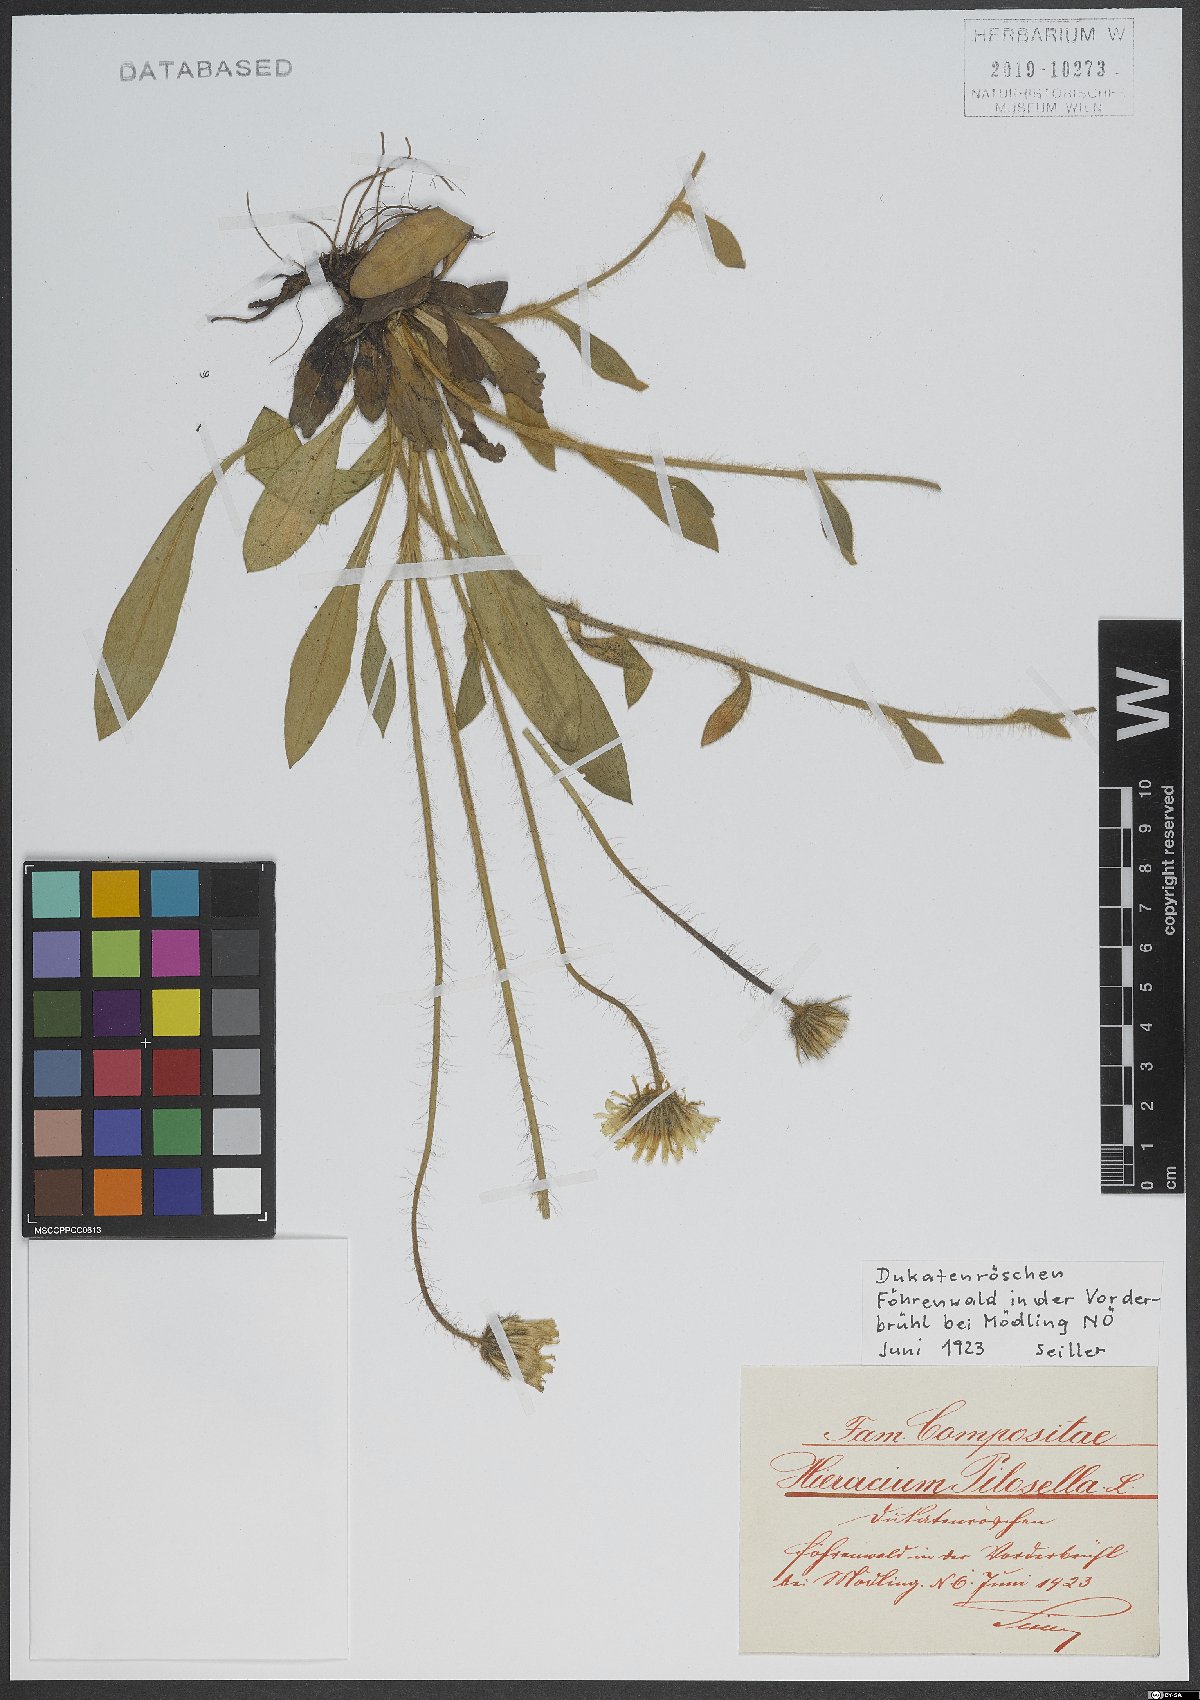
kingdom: Plantae
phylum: Tracheophyta
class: Magnoliopsida
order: Asterales
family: Asteraceae
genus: Pilosella
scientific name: Pilosella officinarum
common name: Mouse-ear hawkweed
